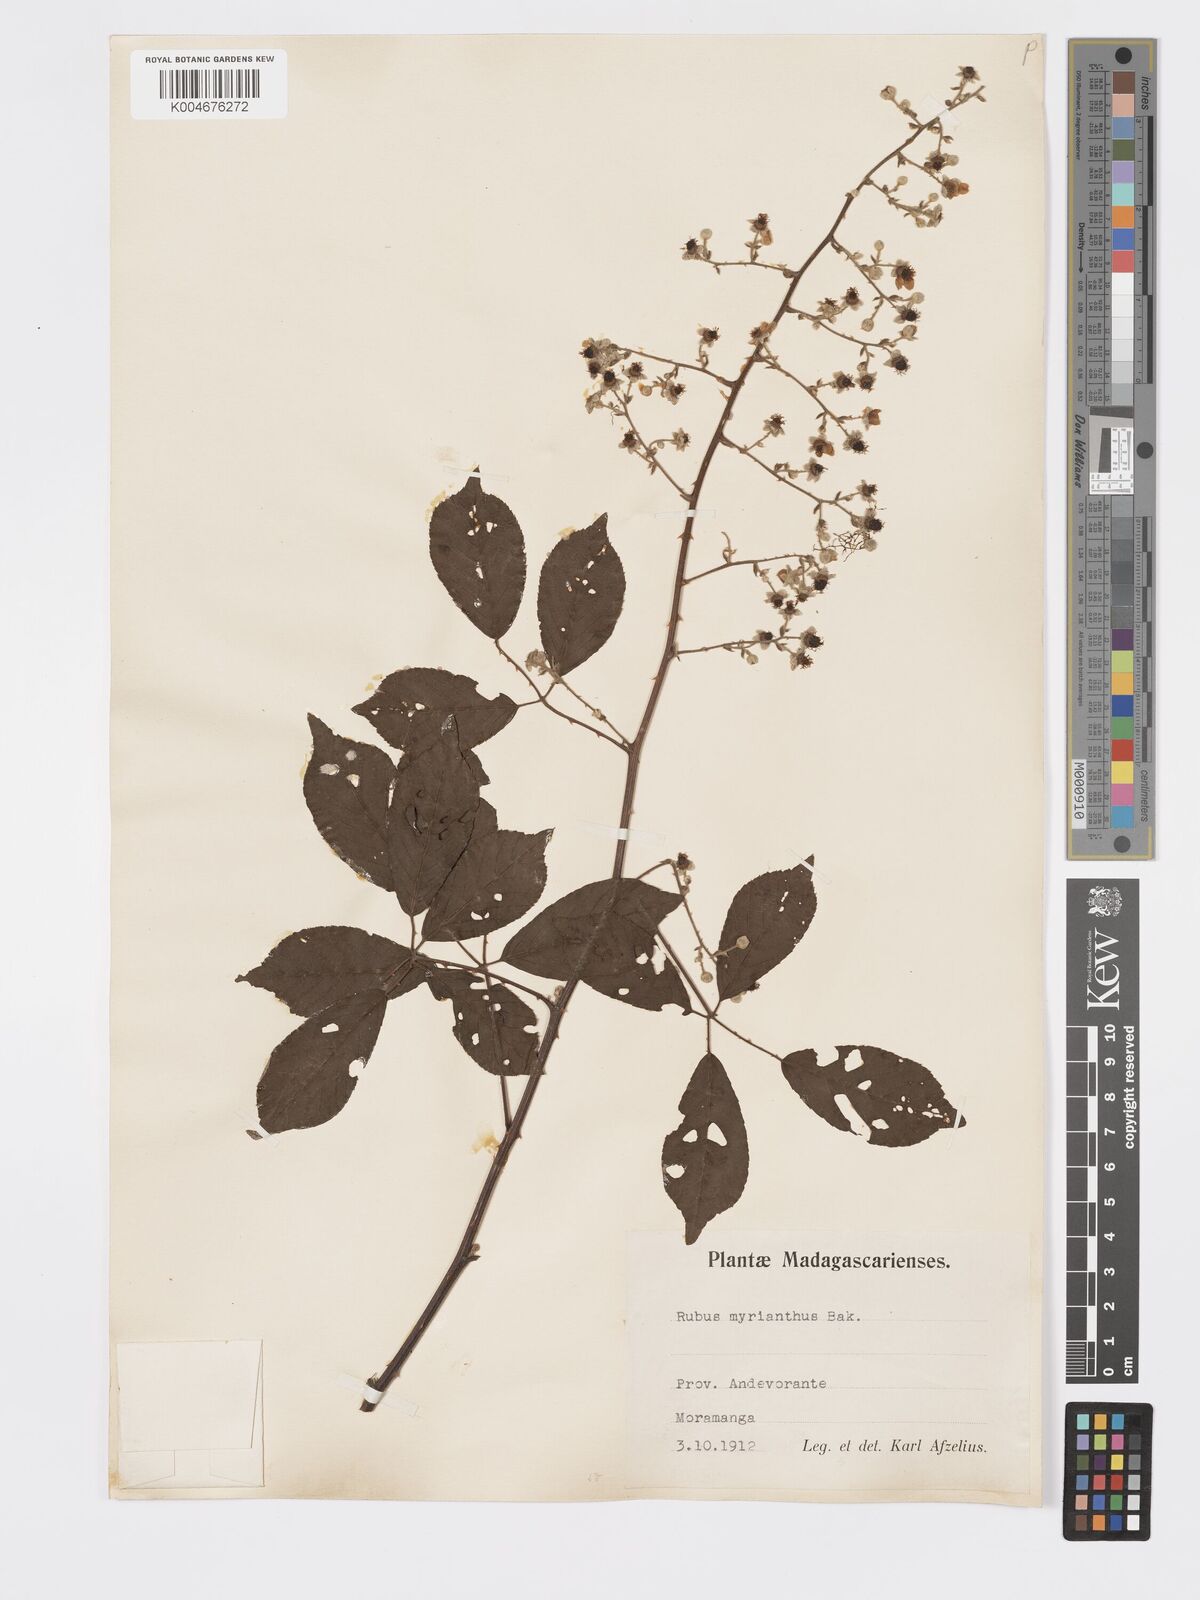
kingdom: Plantae
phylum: Tracheophyta
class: Magnoliopsida
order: Rosales
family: Rosaceae
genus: Rubus
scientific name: Rubus
